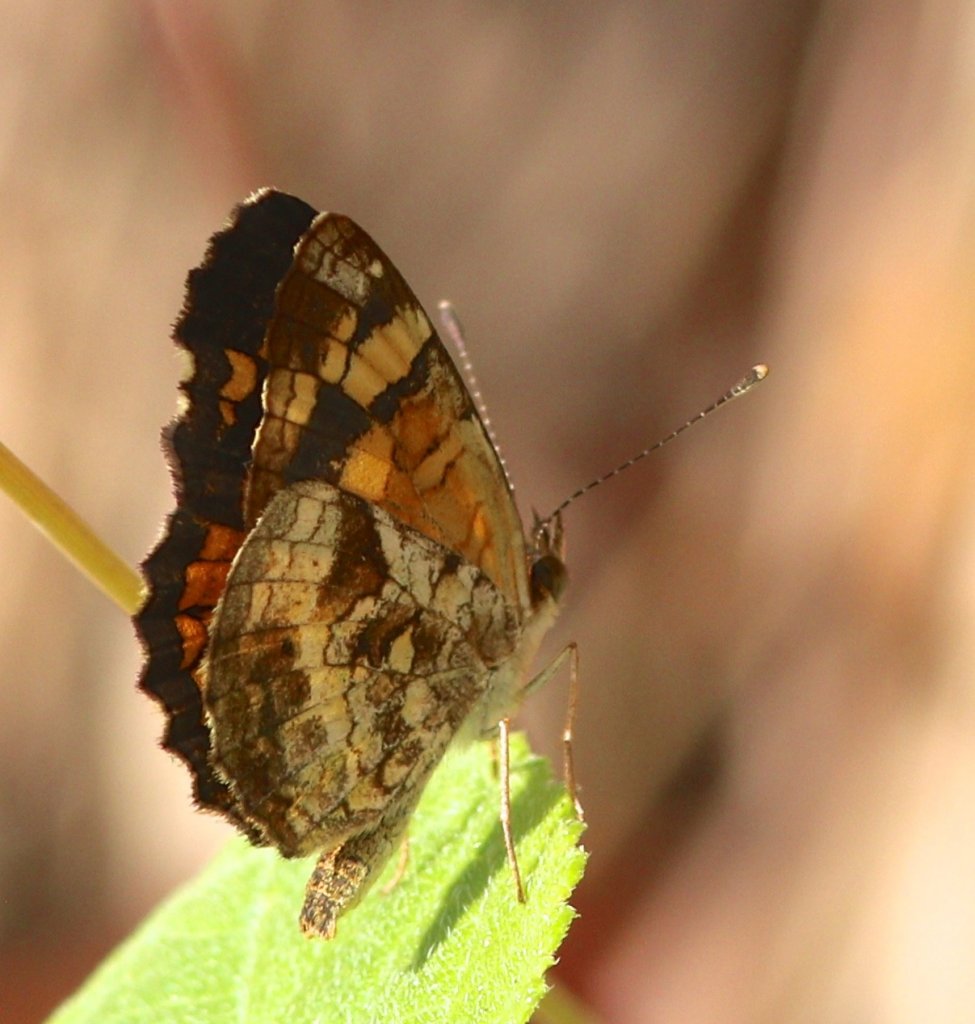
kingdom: Animalia
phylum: Arthropoda
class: Insecta
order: Lepidoptera
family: Nymphalidae
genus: Anthanassa
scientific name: Anthanassa frisia
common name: Cuban Crescent
